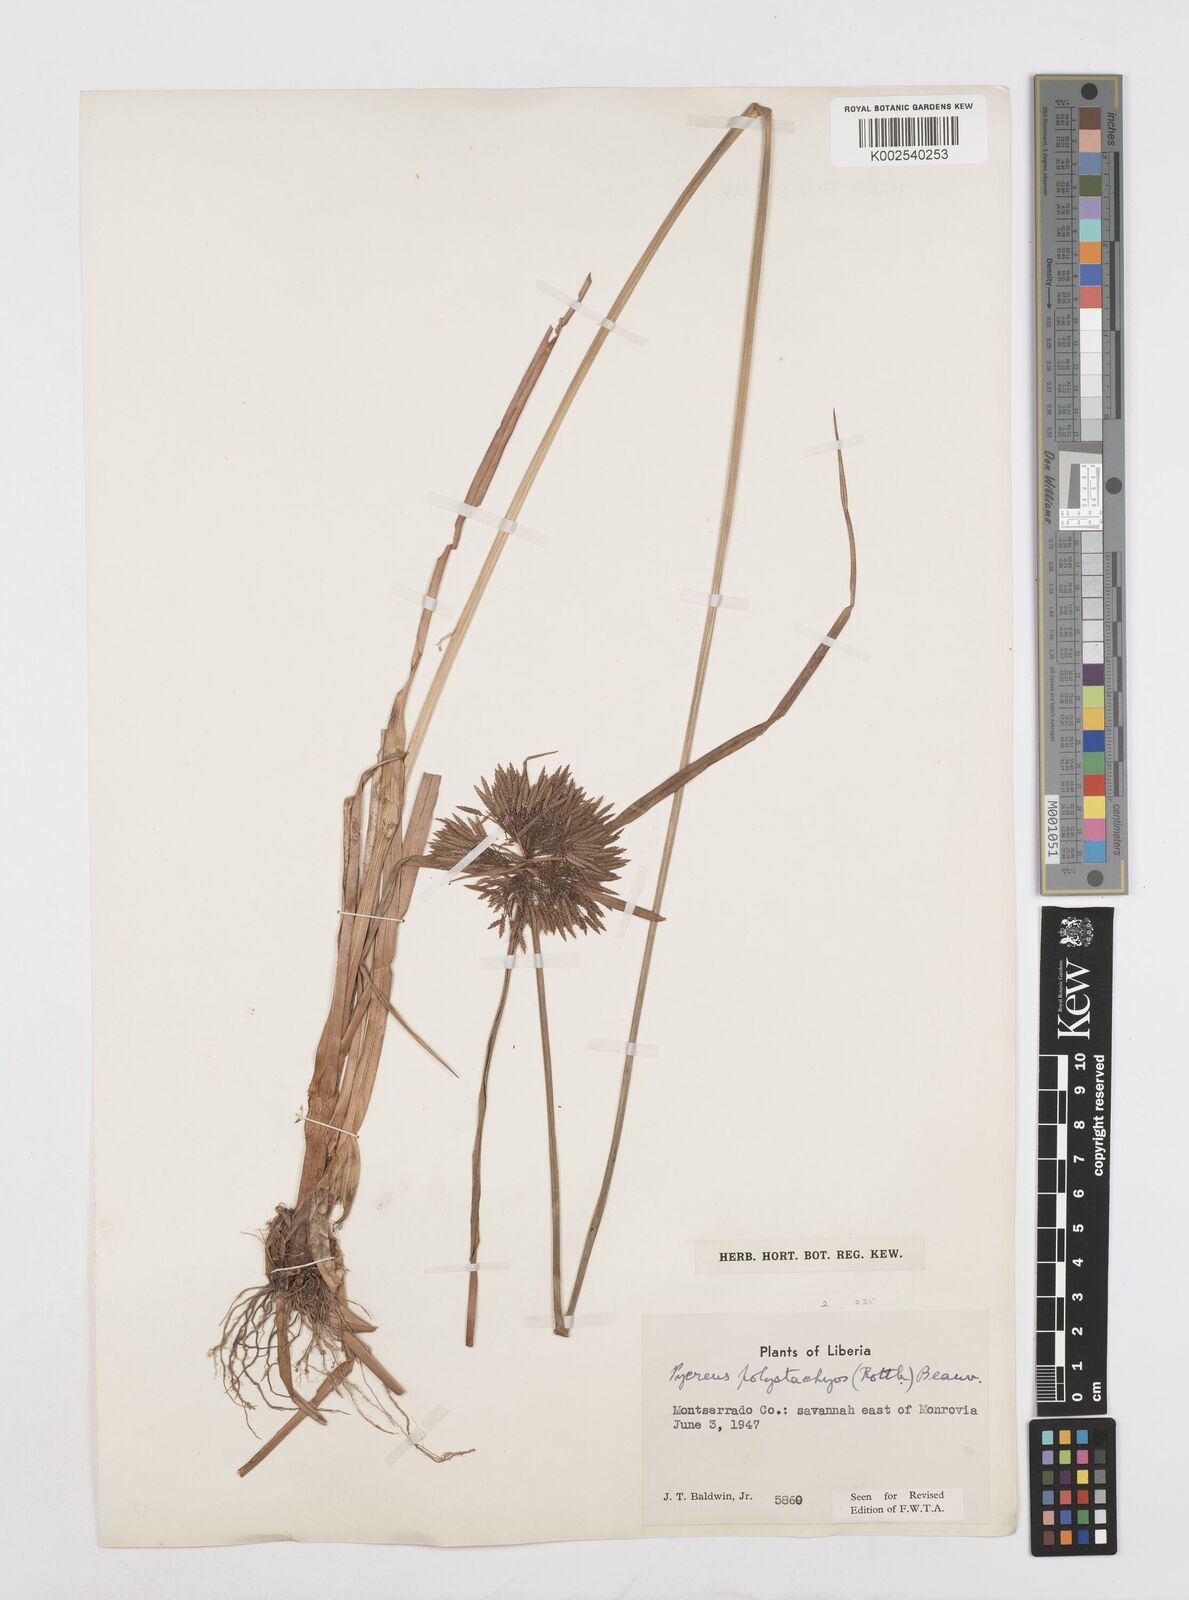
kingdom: Plantae
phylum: Tracheophyta
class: Liliopsida
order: Poales
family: Cyperaceae
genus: Cyperus
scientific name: Cyperus polystachyos
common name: Bunchy flat sedge
